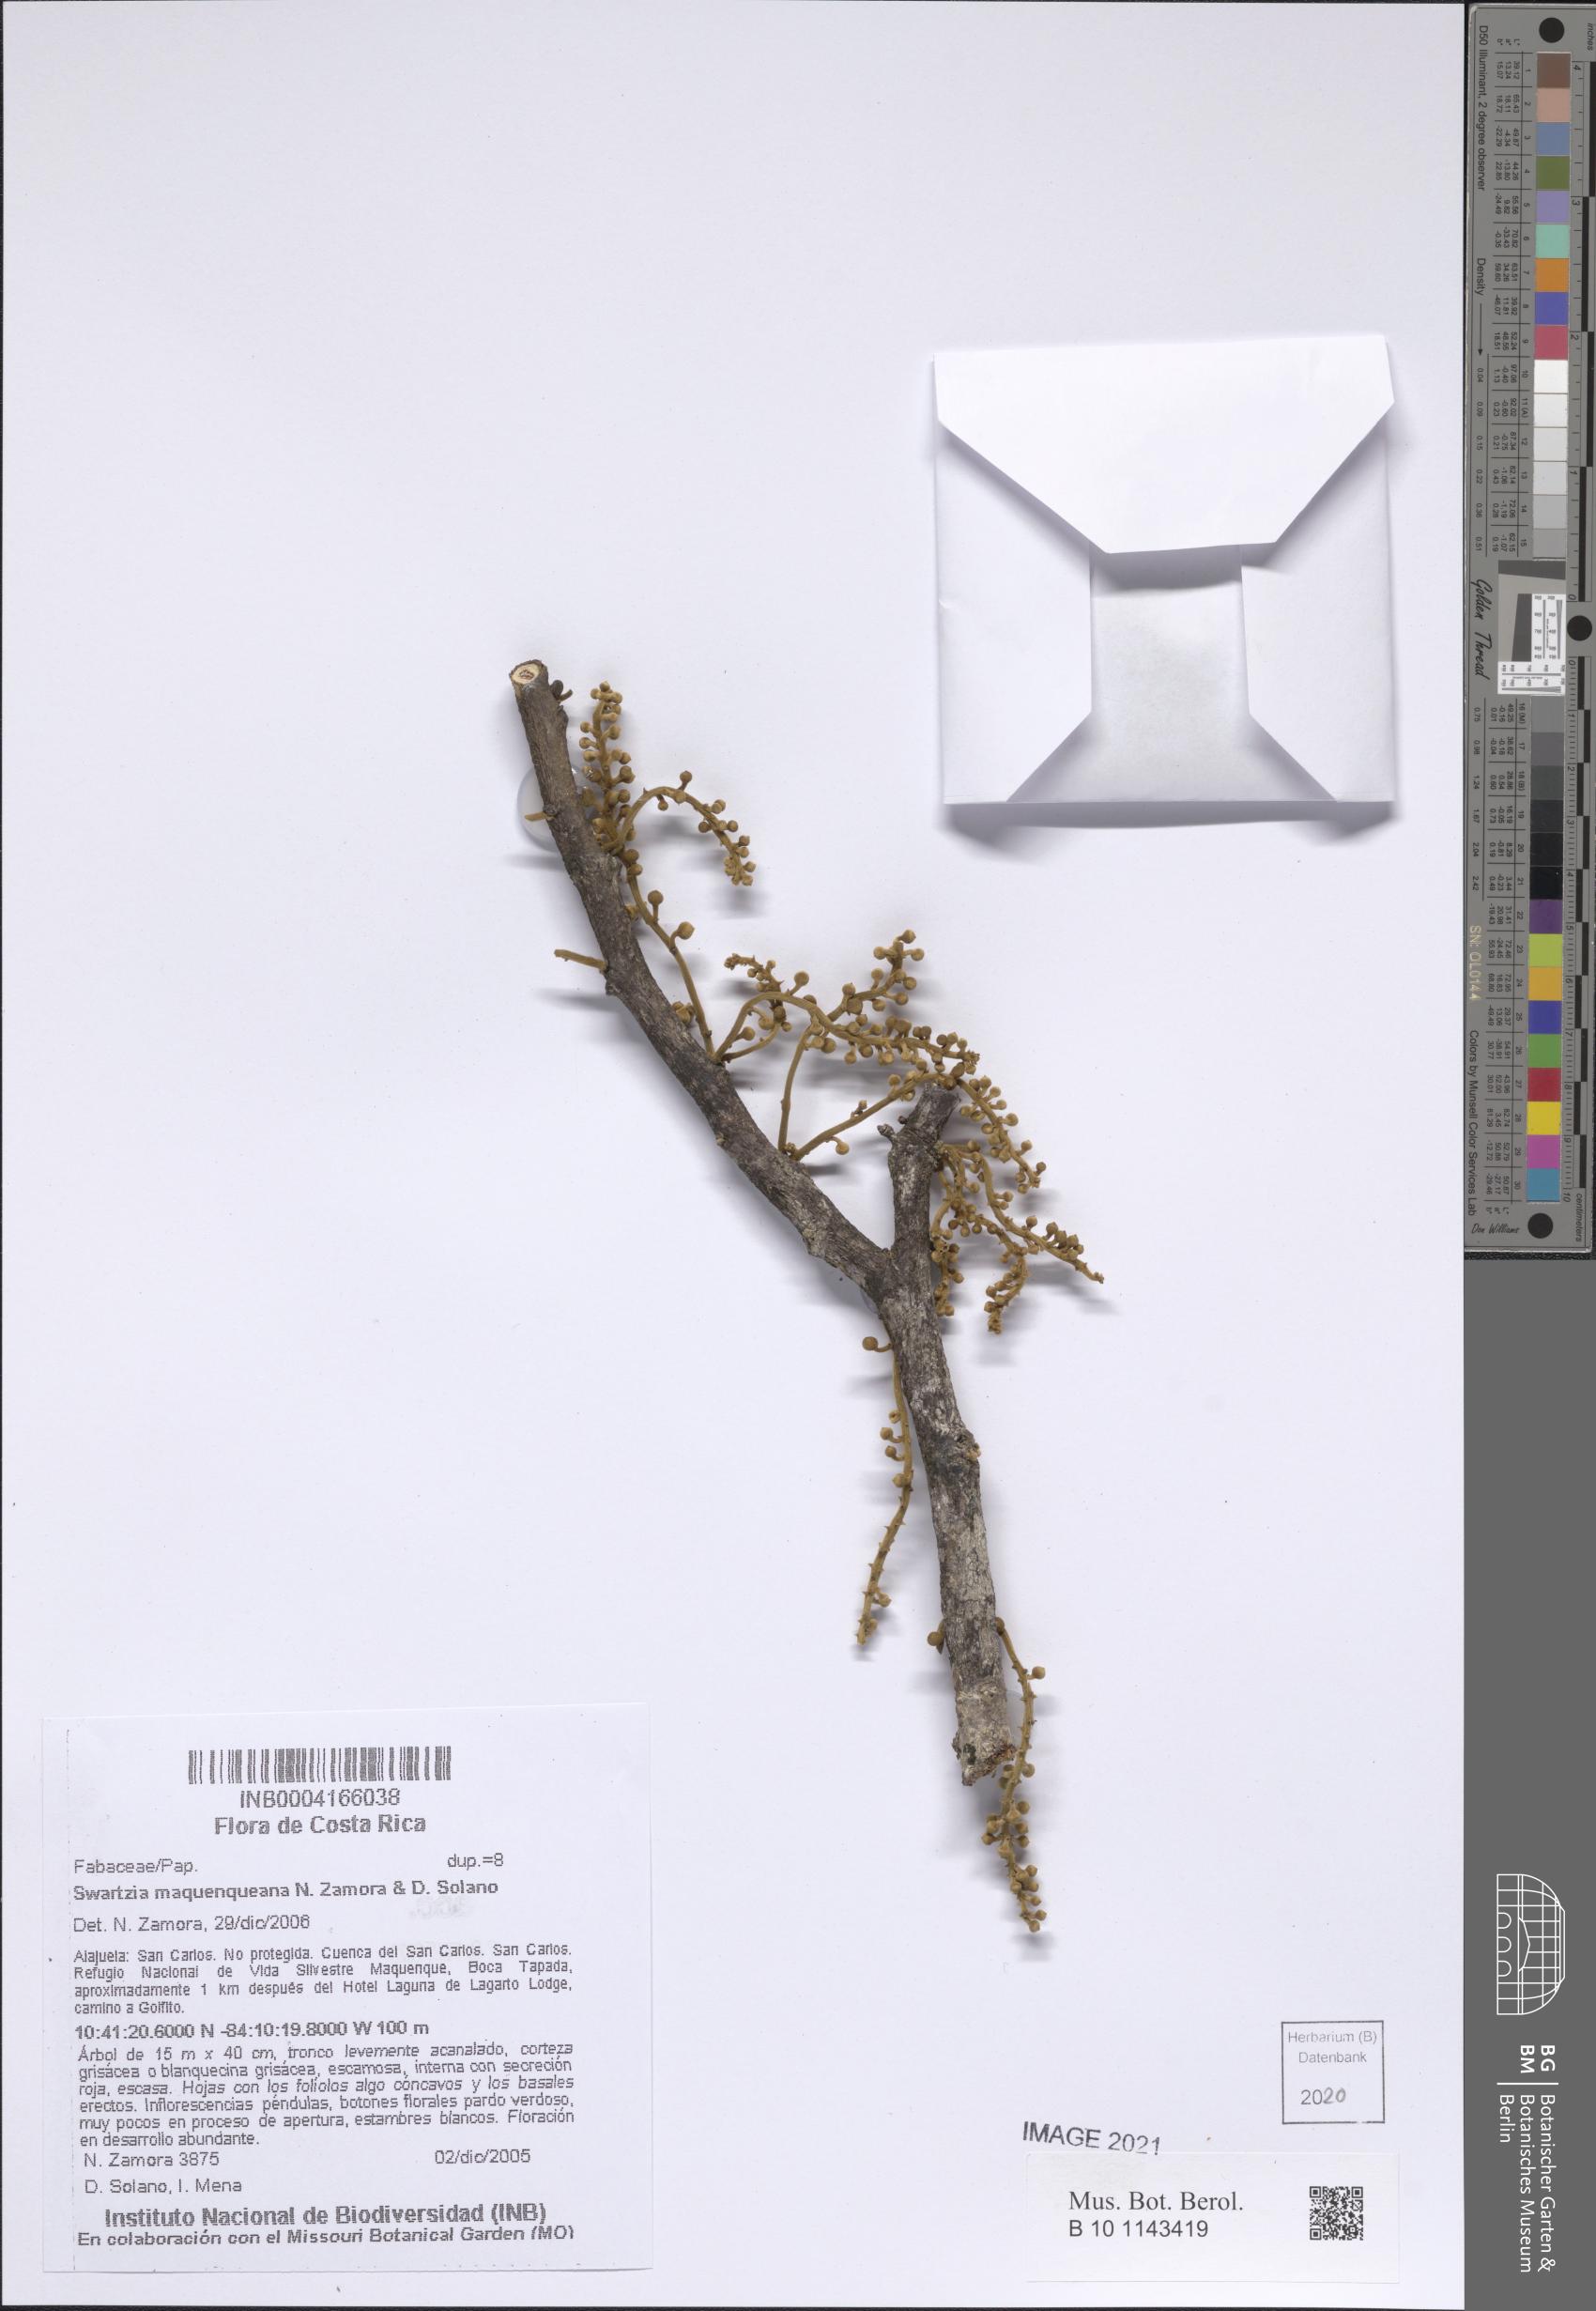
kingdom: Plantae
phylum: Tracheophyta
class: Magnoliopsida
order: Fabales
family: Fabaceae
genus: Swartzia
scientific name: Swartzia maquenqueana
